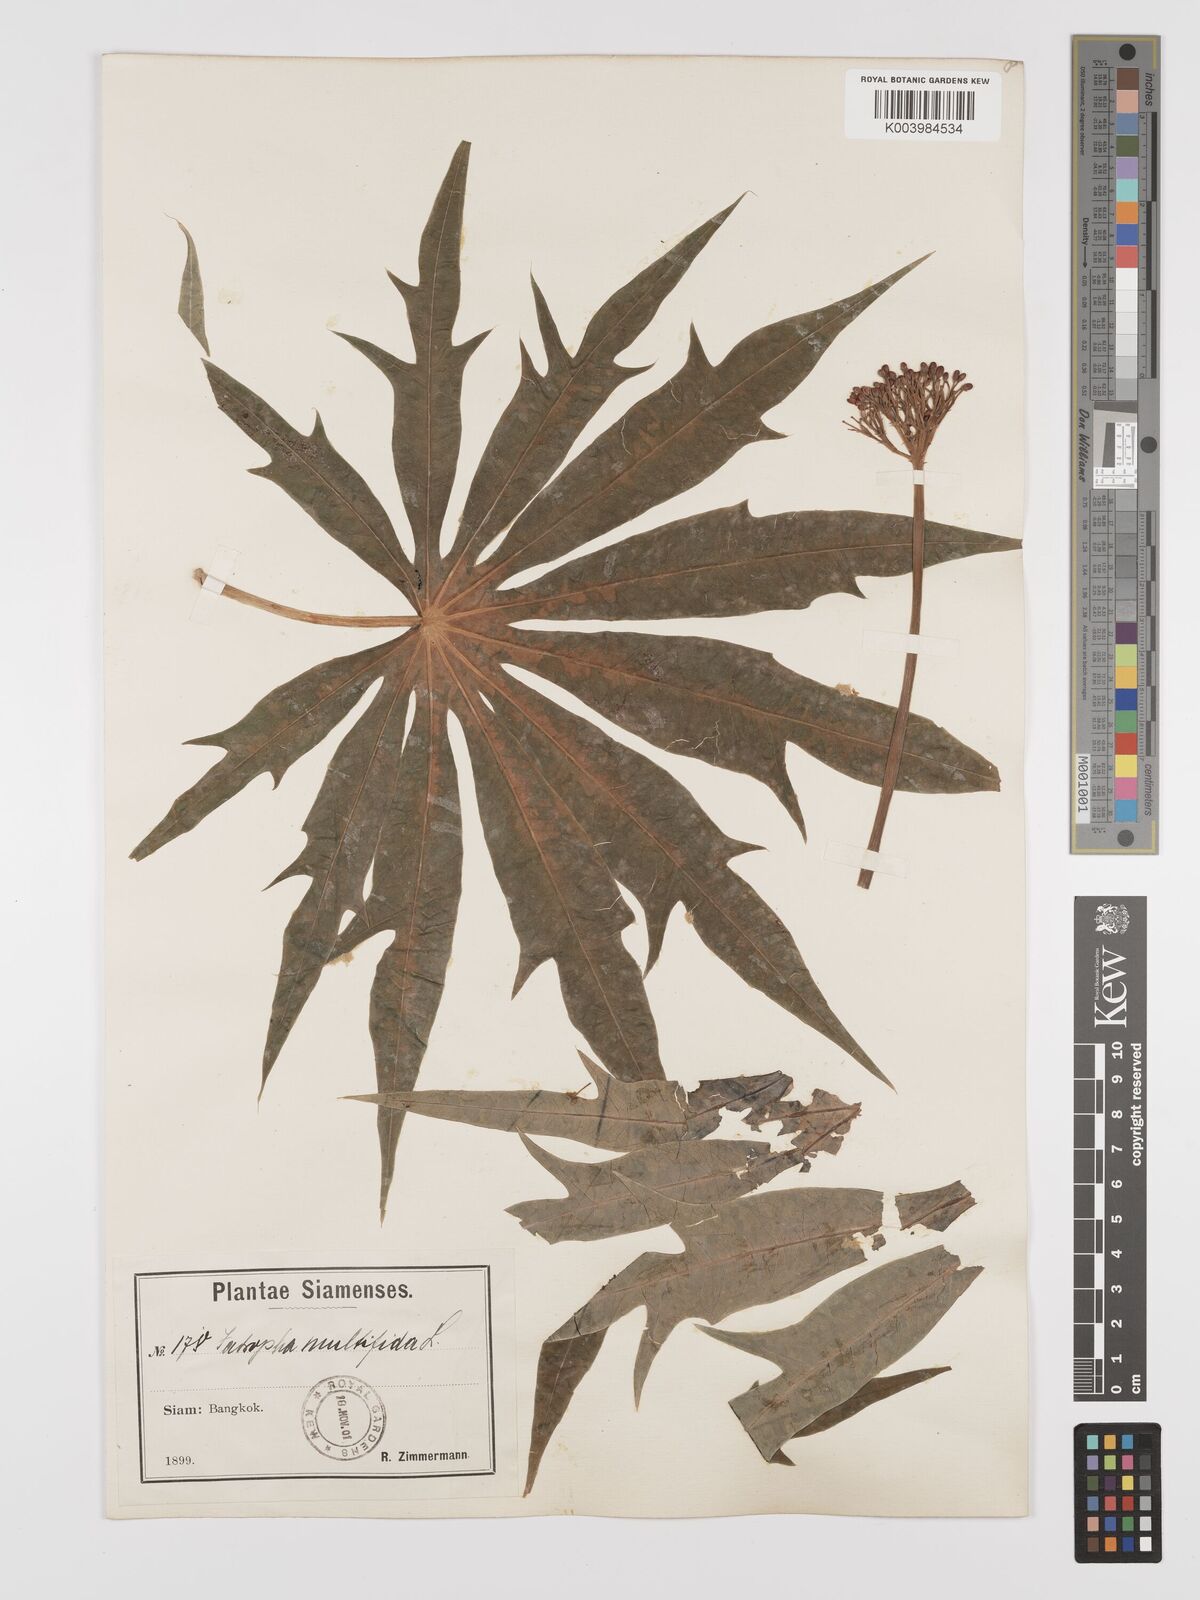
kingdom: Plantae
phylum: Tracheophyta
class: Magnoliopsida
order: Malpighiales
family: Euphorbiaceae
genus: Jatropha
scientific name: Jatropha multifida
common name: Coralbush
